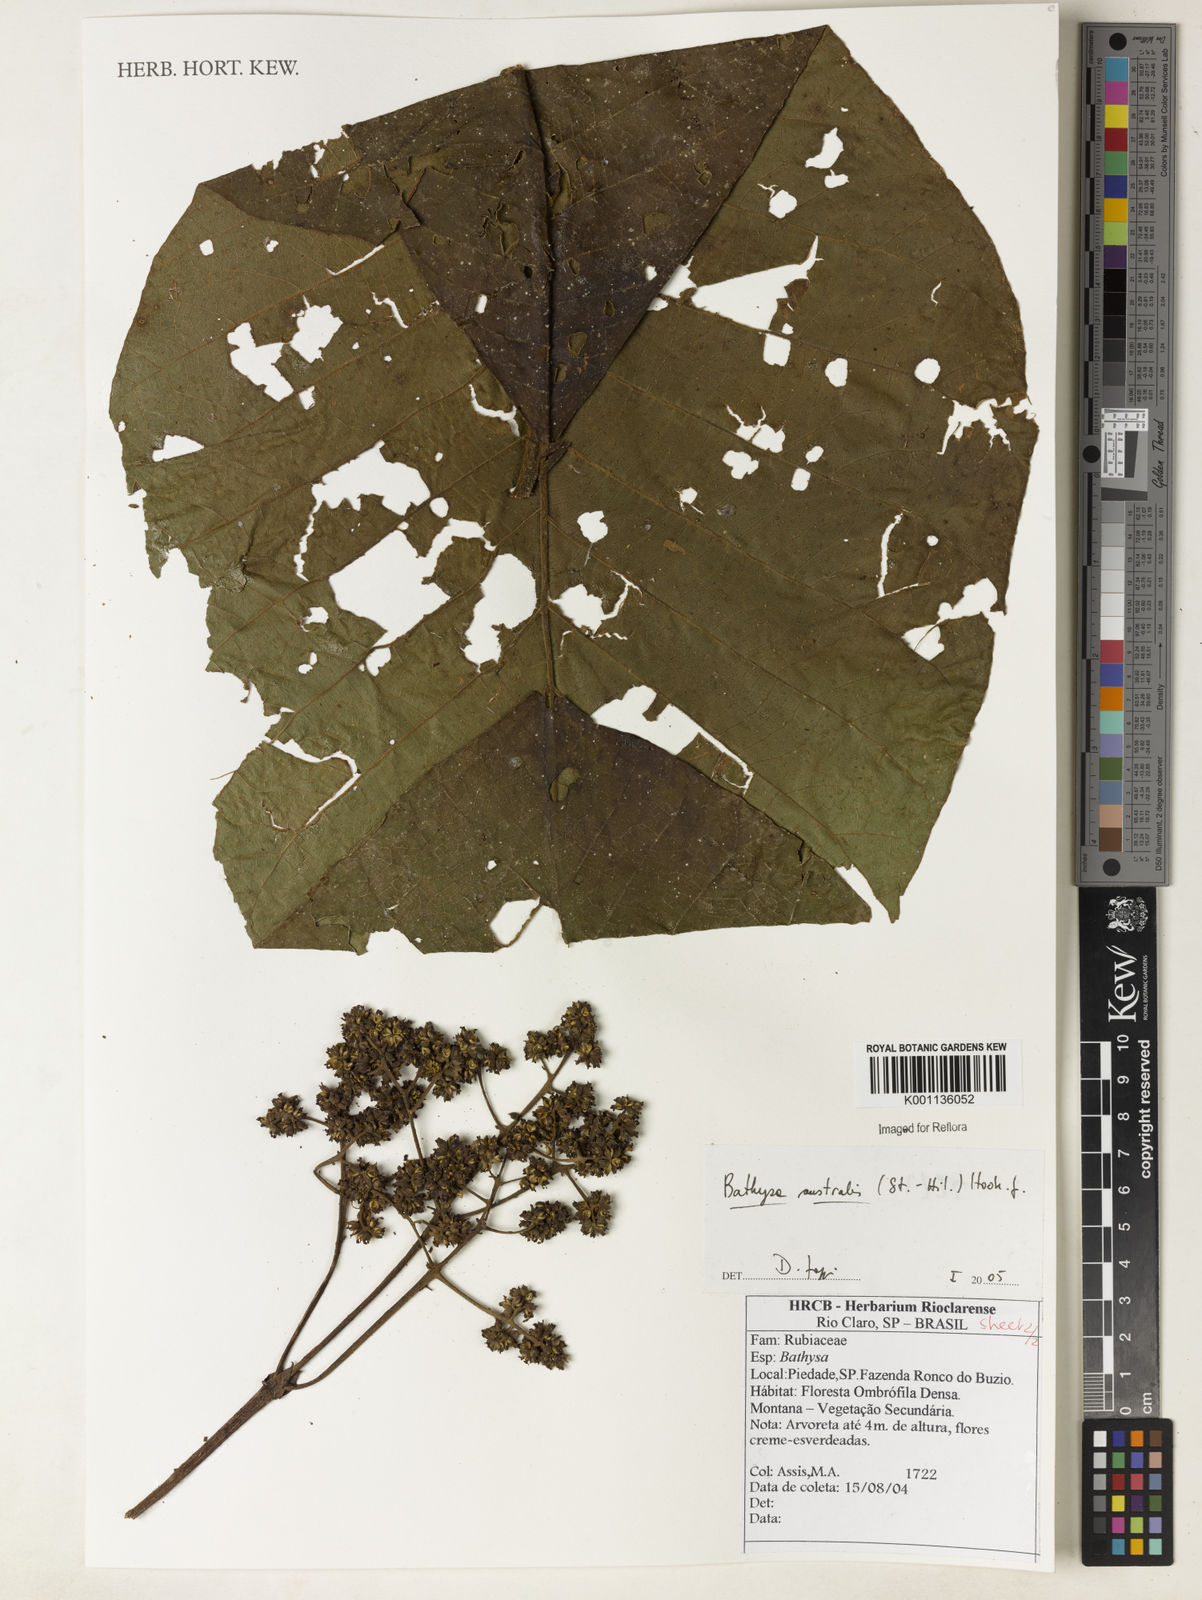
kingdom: Plantae
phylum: Tracheophyta
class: Magnoliopsida
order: Gentianales
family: Rubiaceae
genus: Bathysa
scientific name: Bathysa australis
